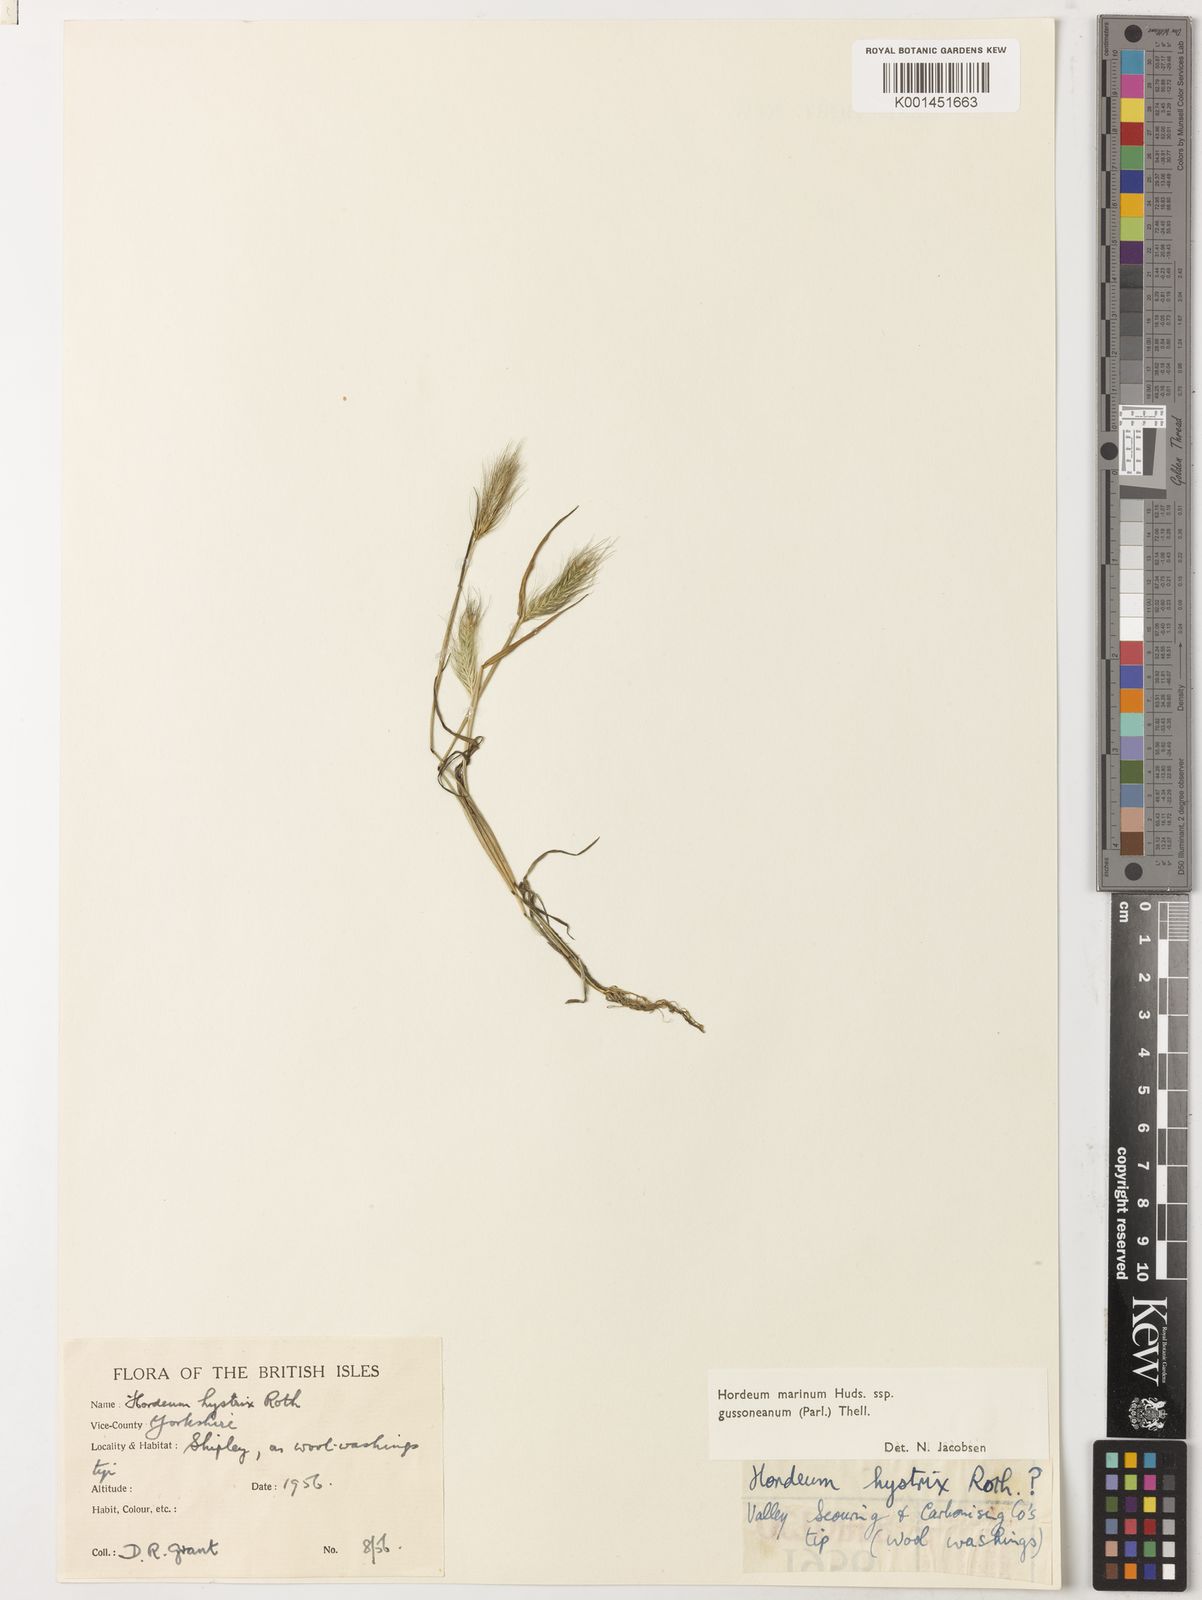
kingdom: Plantae
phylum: Tracheophyta
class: Liliopsida
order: Poales
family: Poaceae
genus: Hordeum
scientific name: Hordeum marinum
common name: Sea barley
